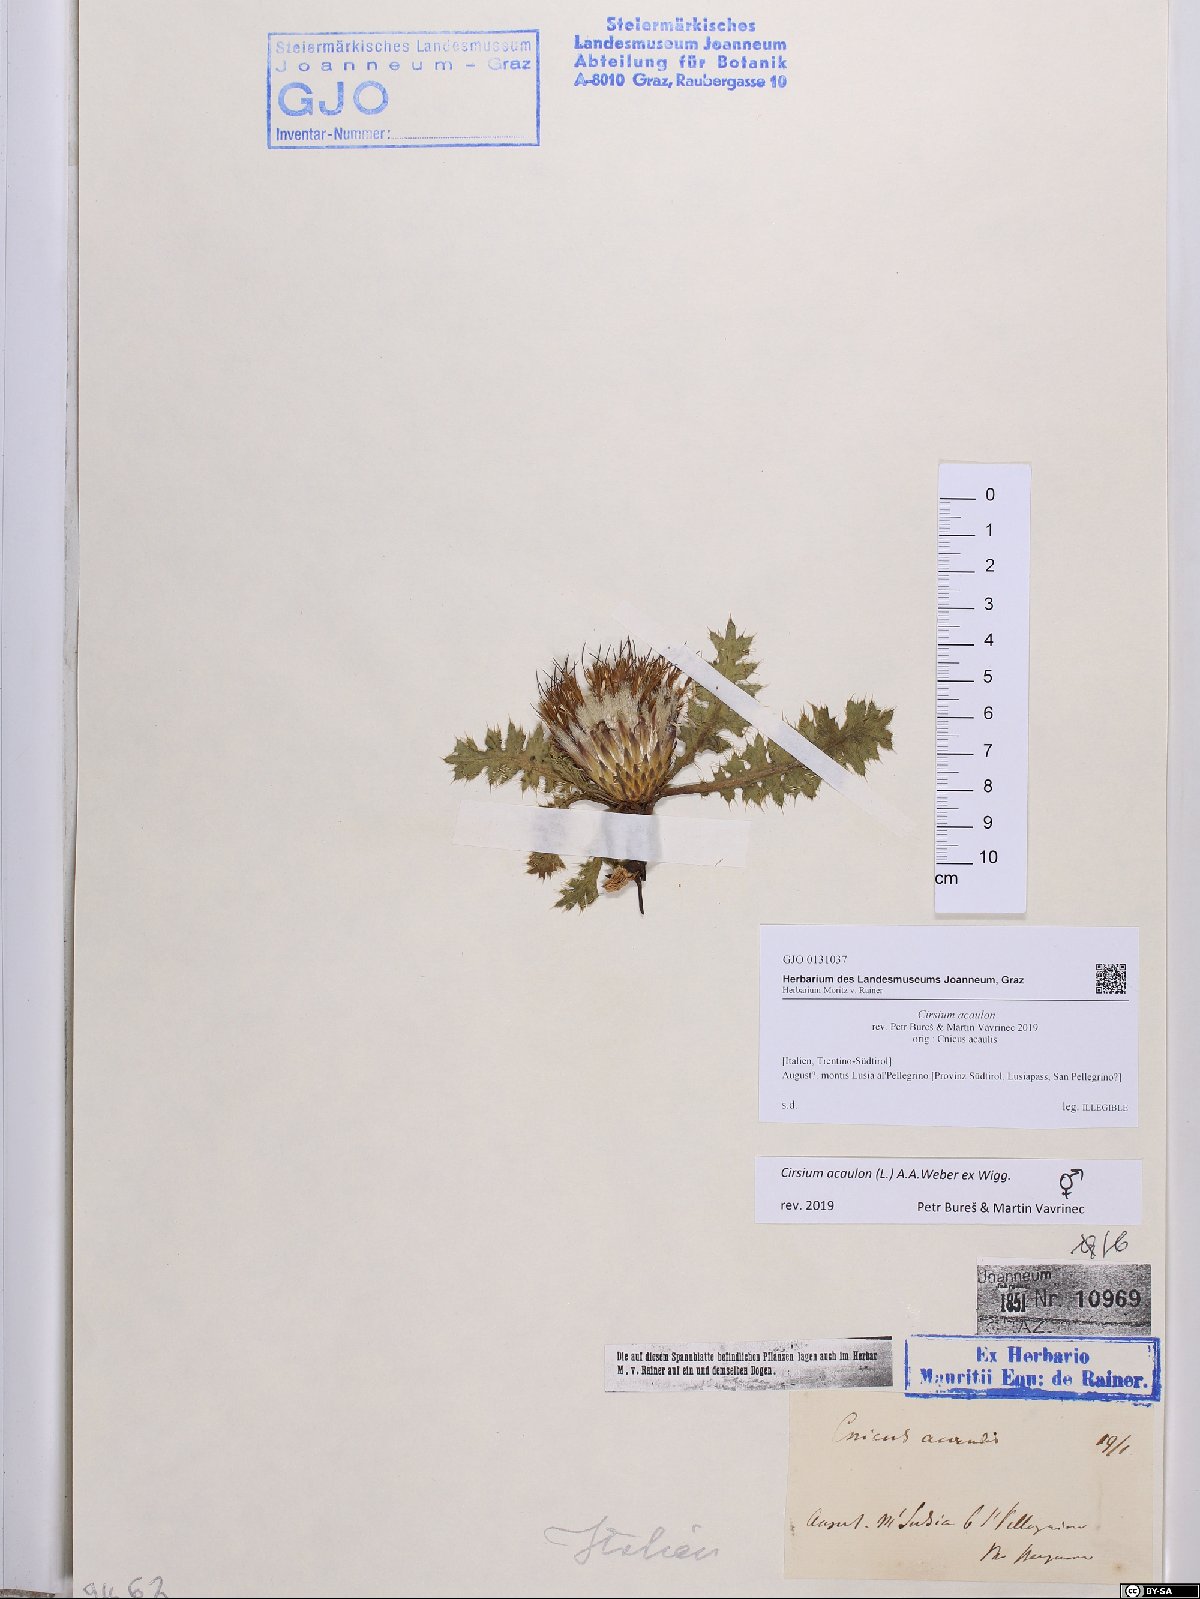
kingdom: Plantae
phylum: Tracheophyta
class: Magnoliopsida
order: Asterales
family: Asteraceae
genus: Cirsium
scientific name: Cirsium acaulon
